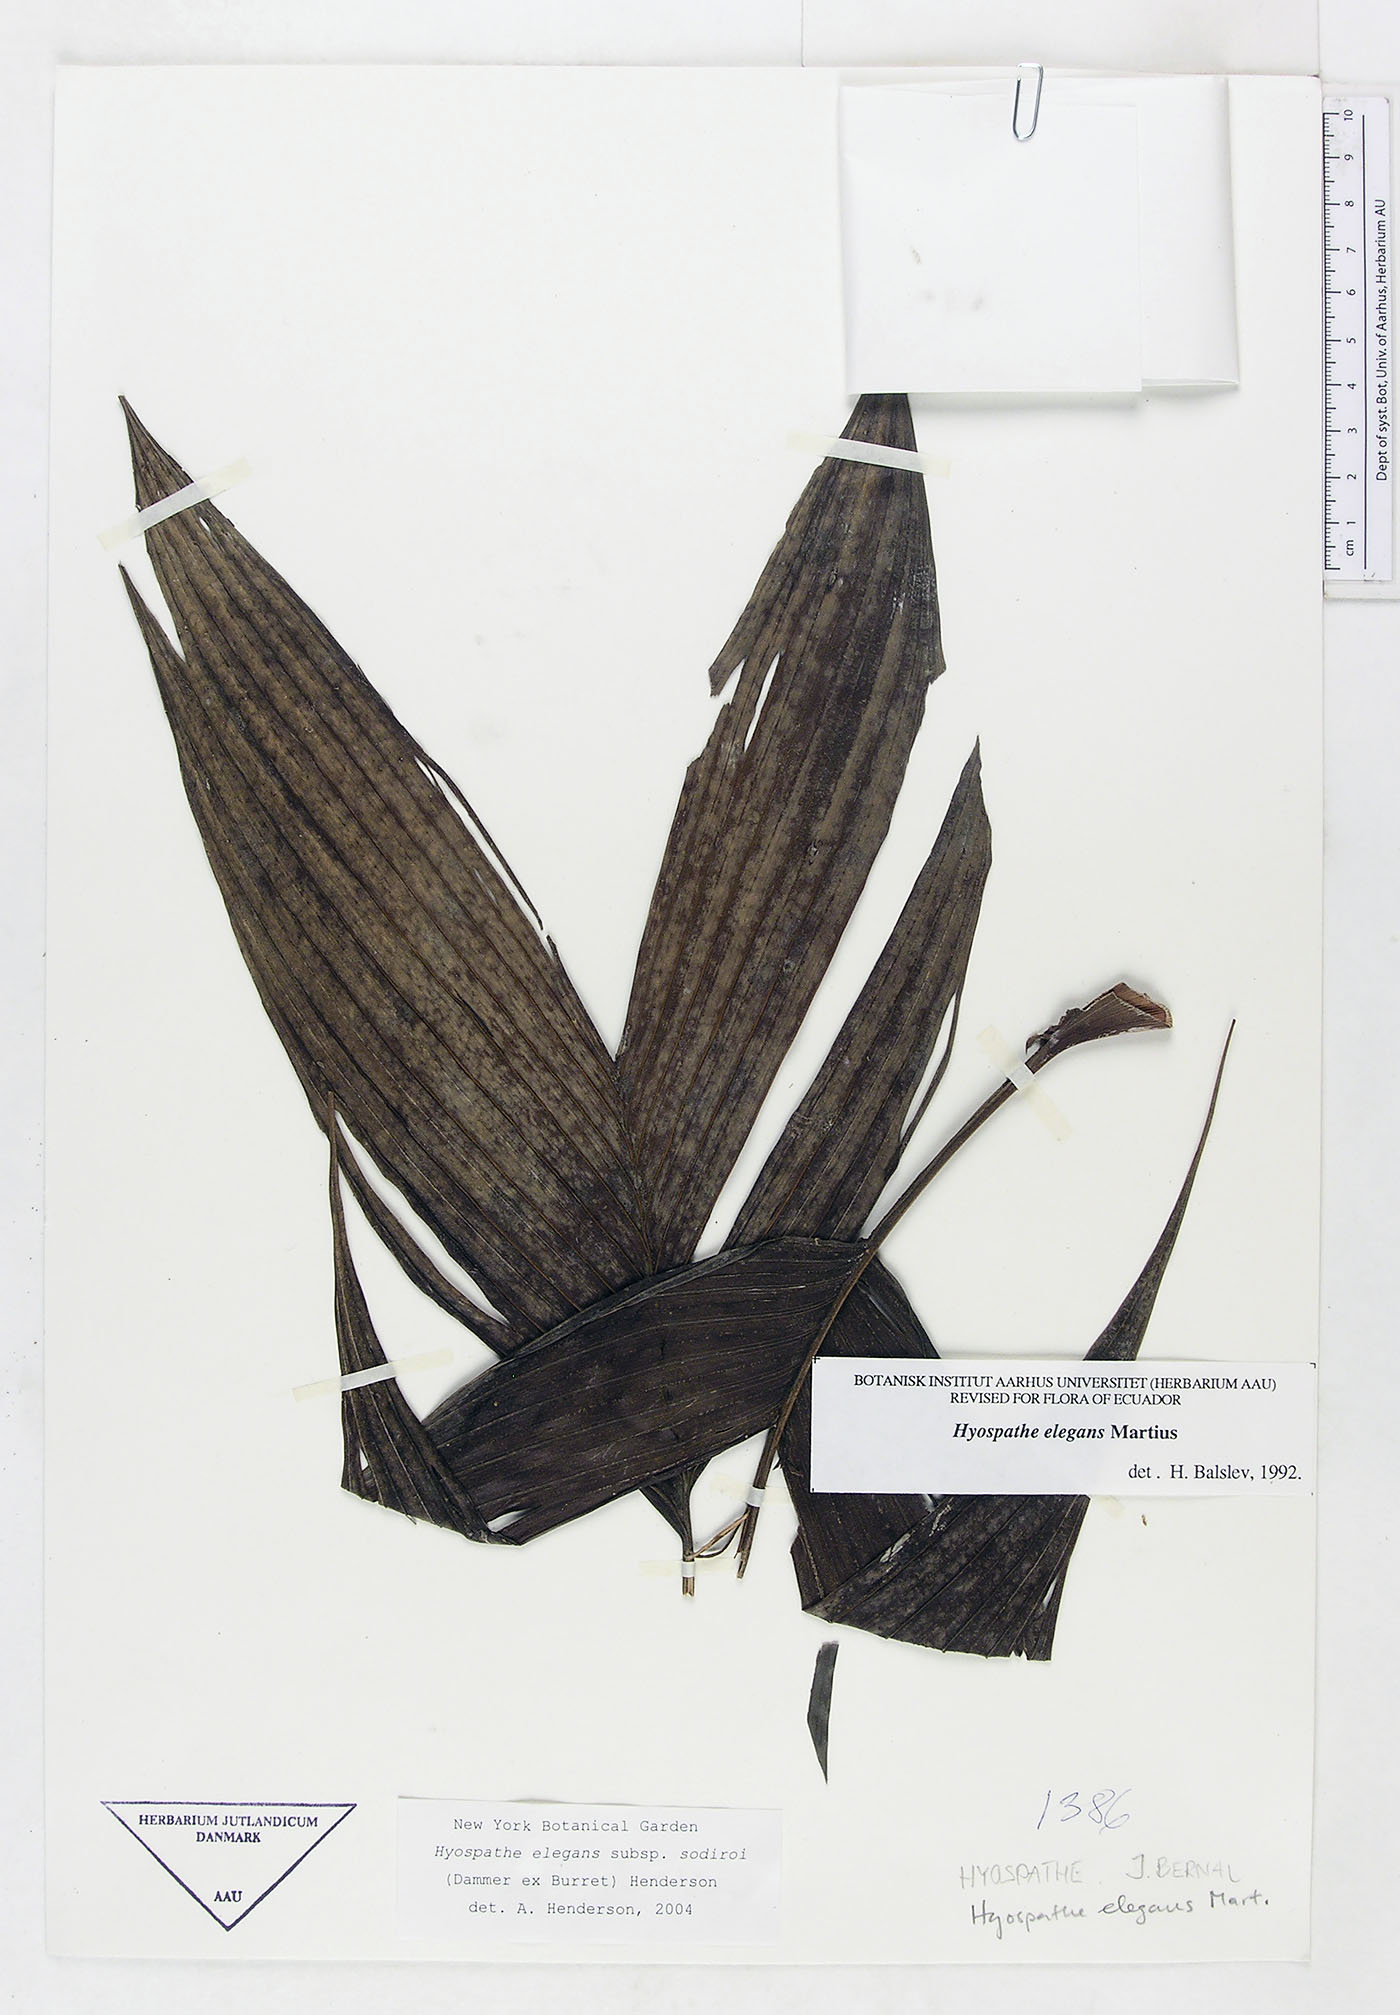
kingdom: Plantae
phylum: Tracheophyta
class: Liliopsida
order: Arecales
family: Arecaceae
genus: Hyospathe
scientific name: Hyospathe elegans
